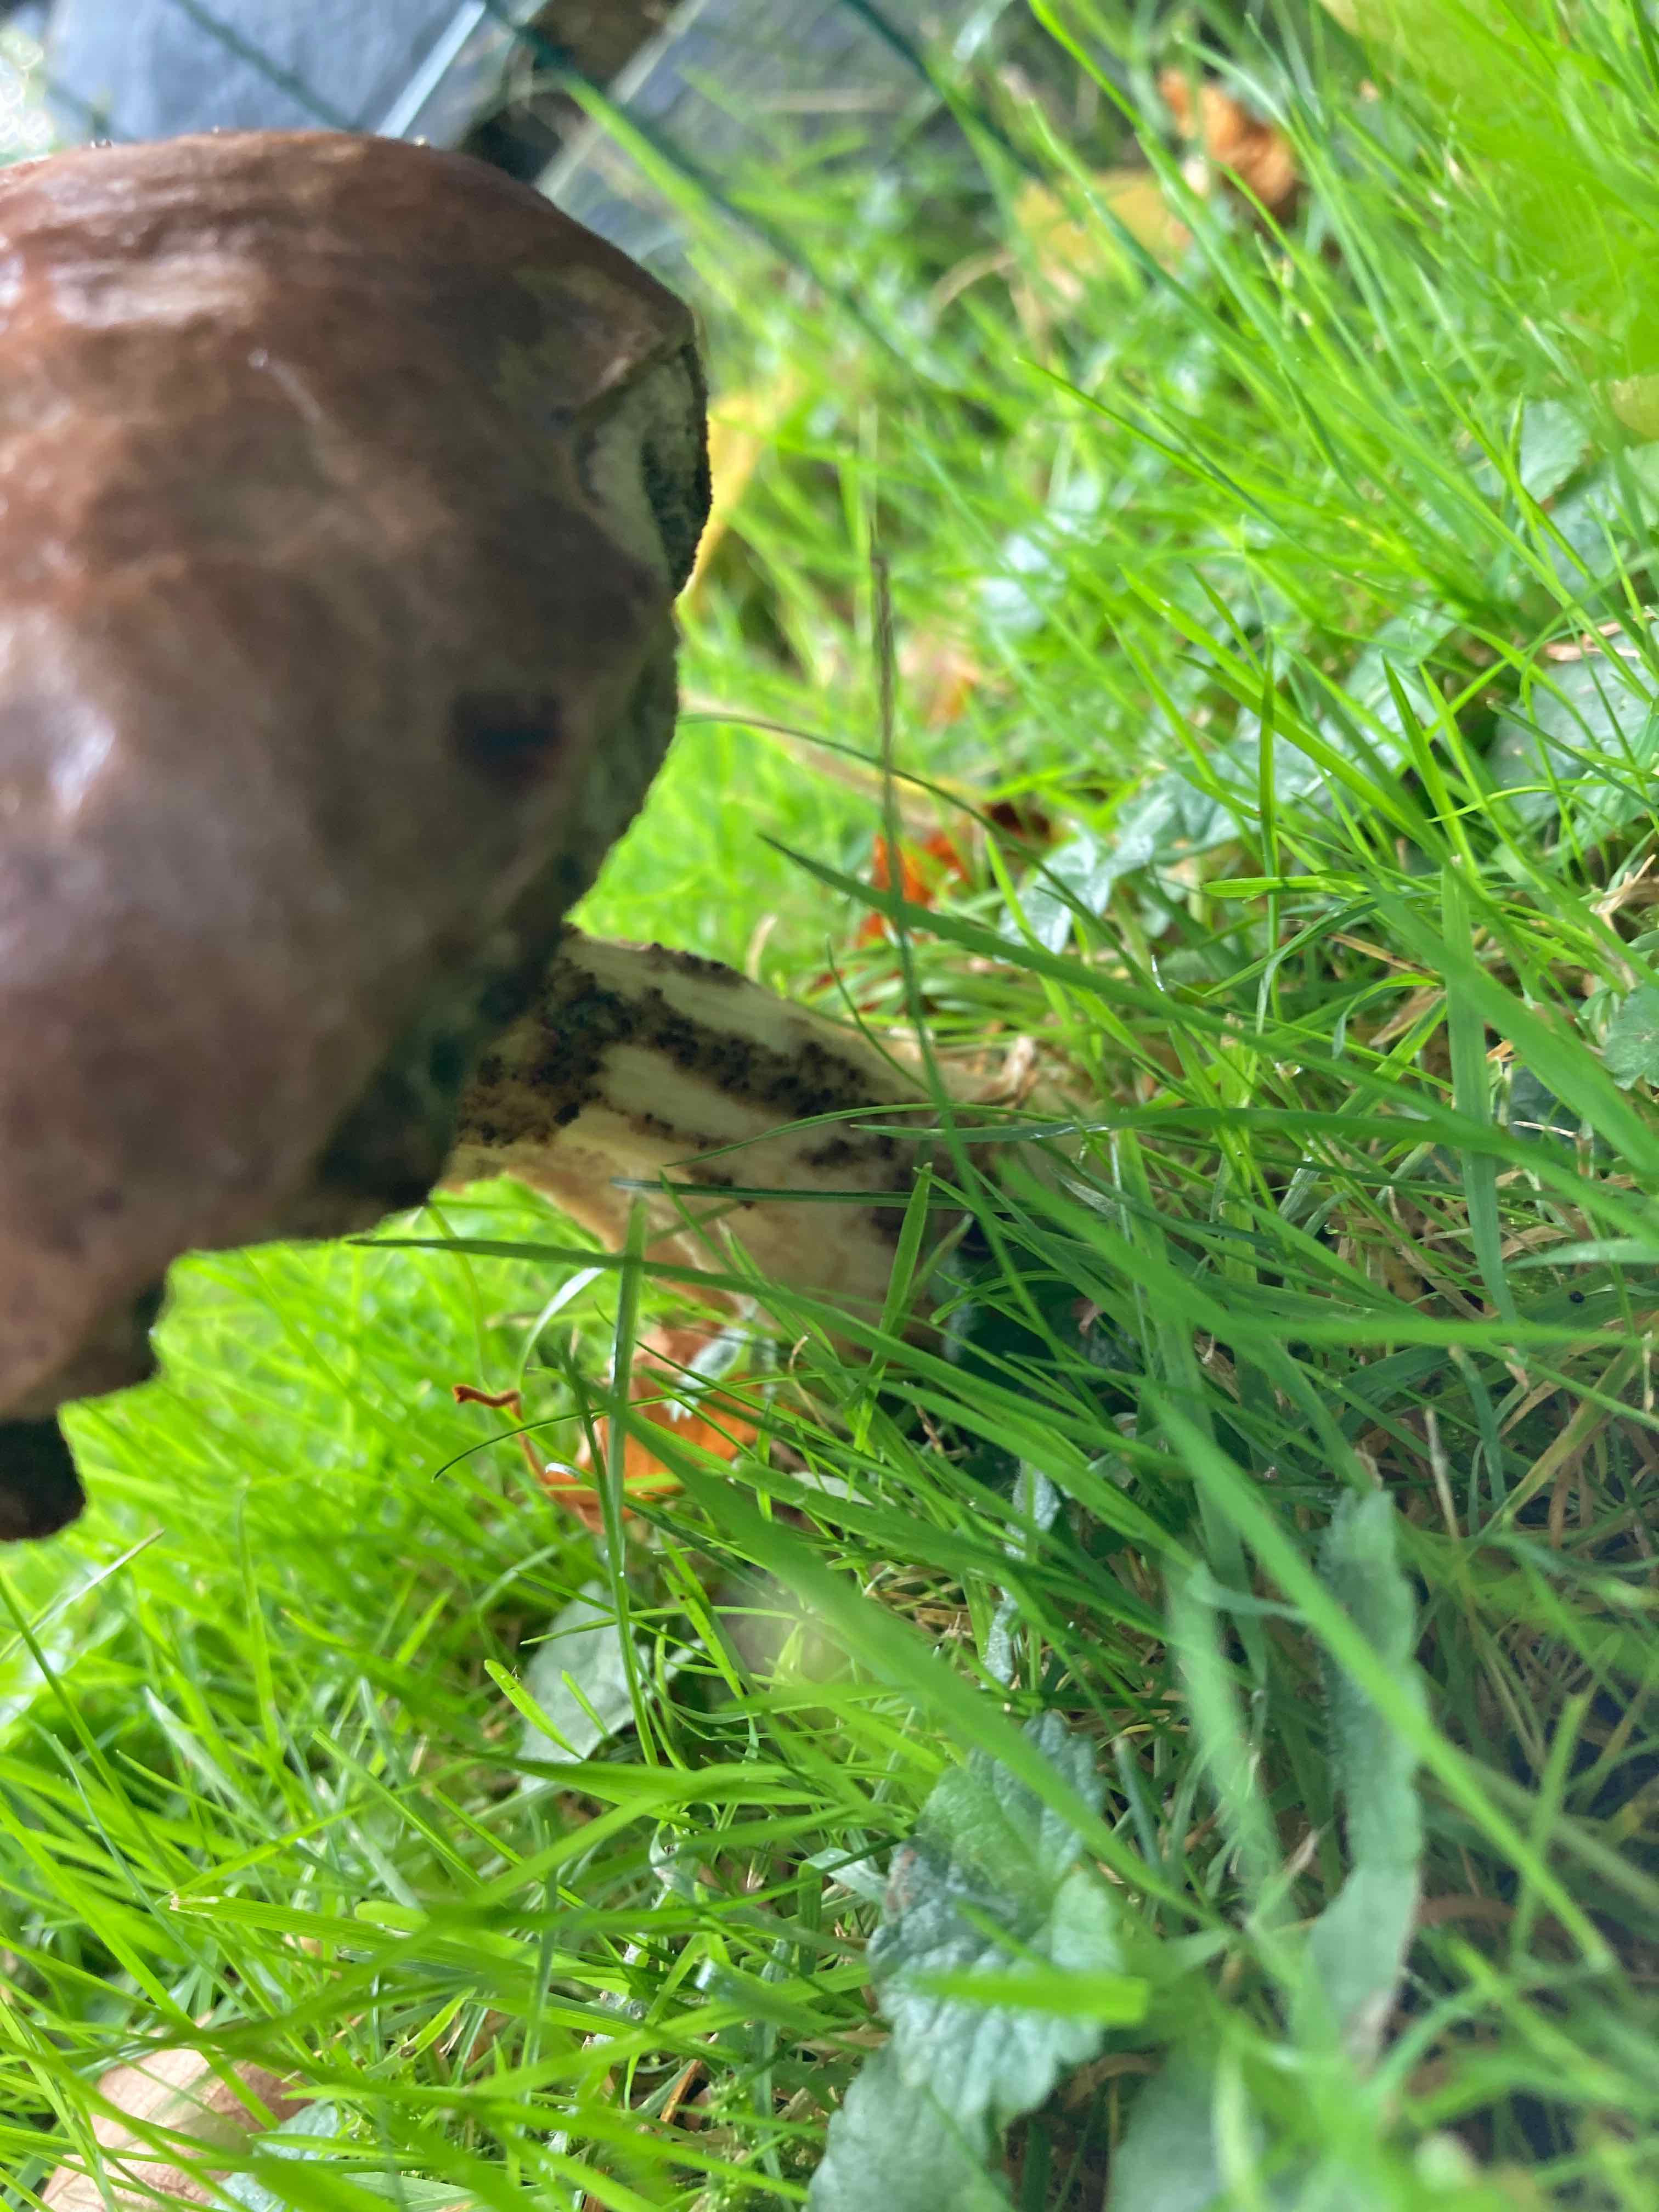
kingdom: Fungi
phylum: Basidiomycota
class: Agaricomycetes
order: Boletales
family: Boletaceae
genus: Leccinum
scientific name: Leccinum
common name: skælrørhat
